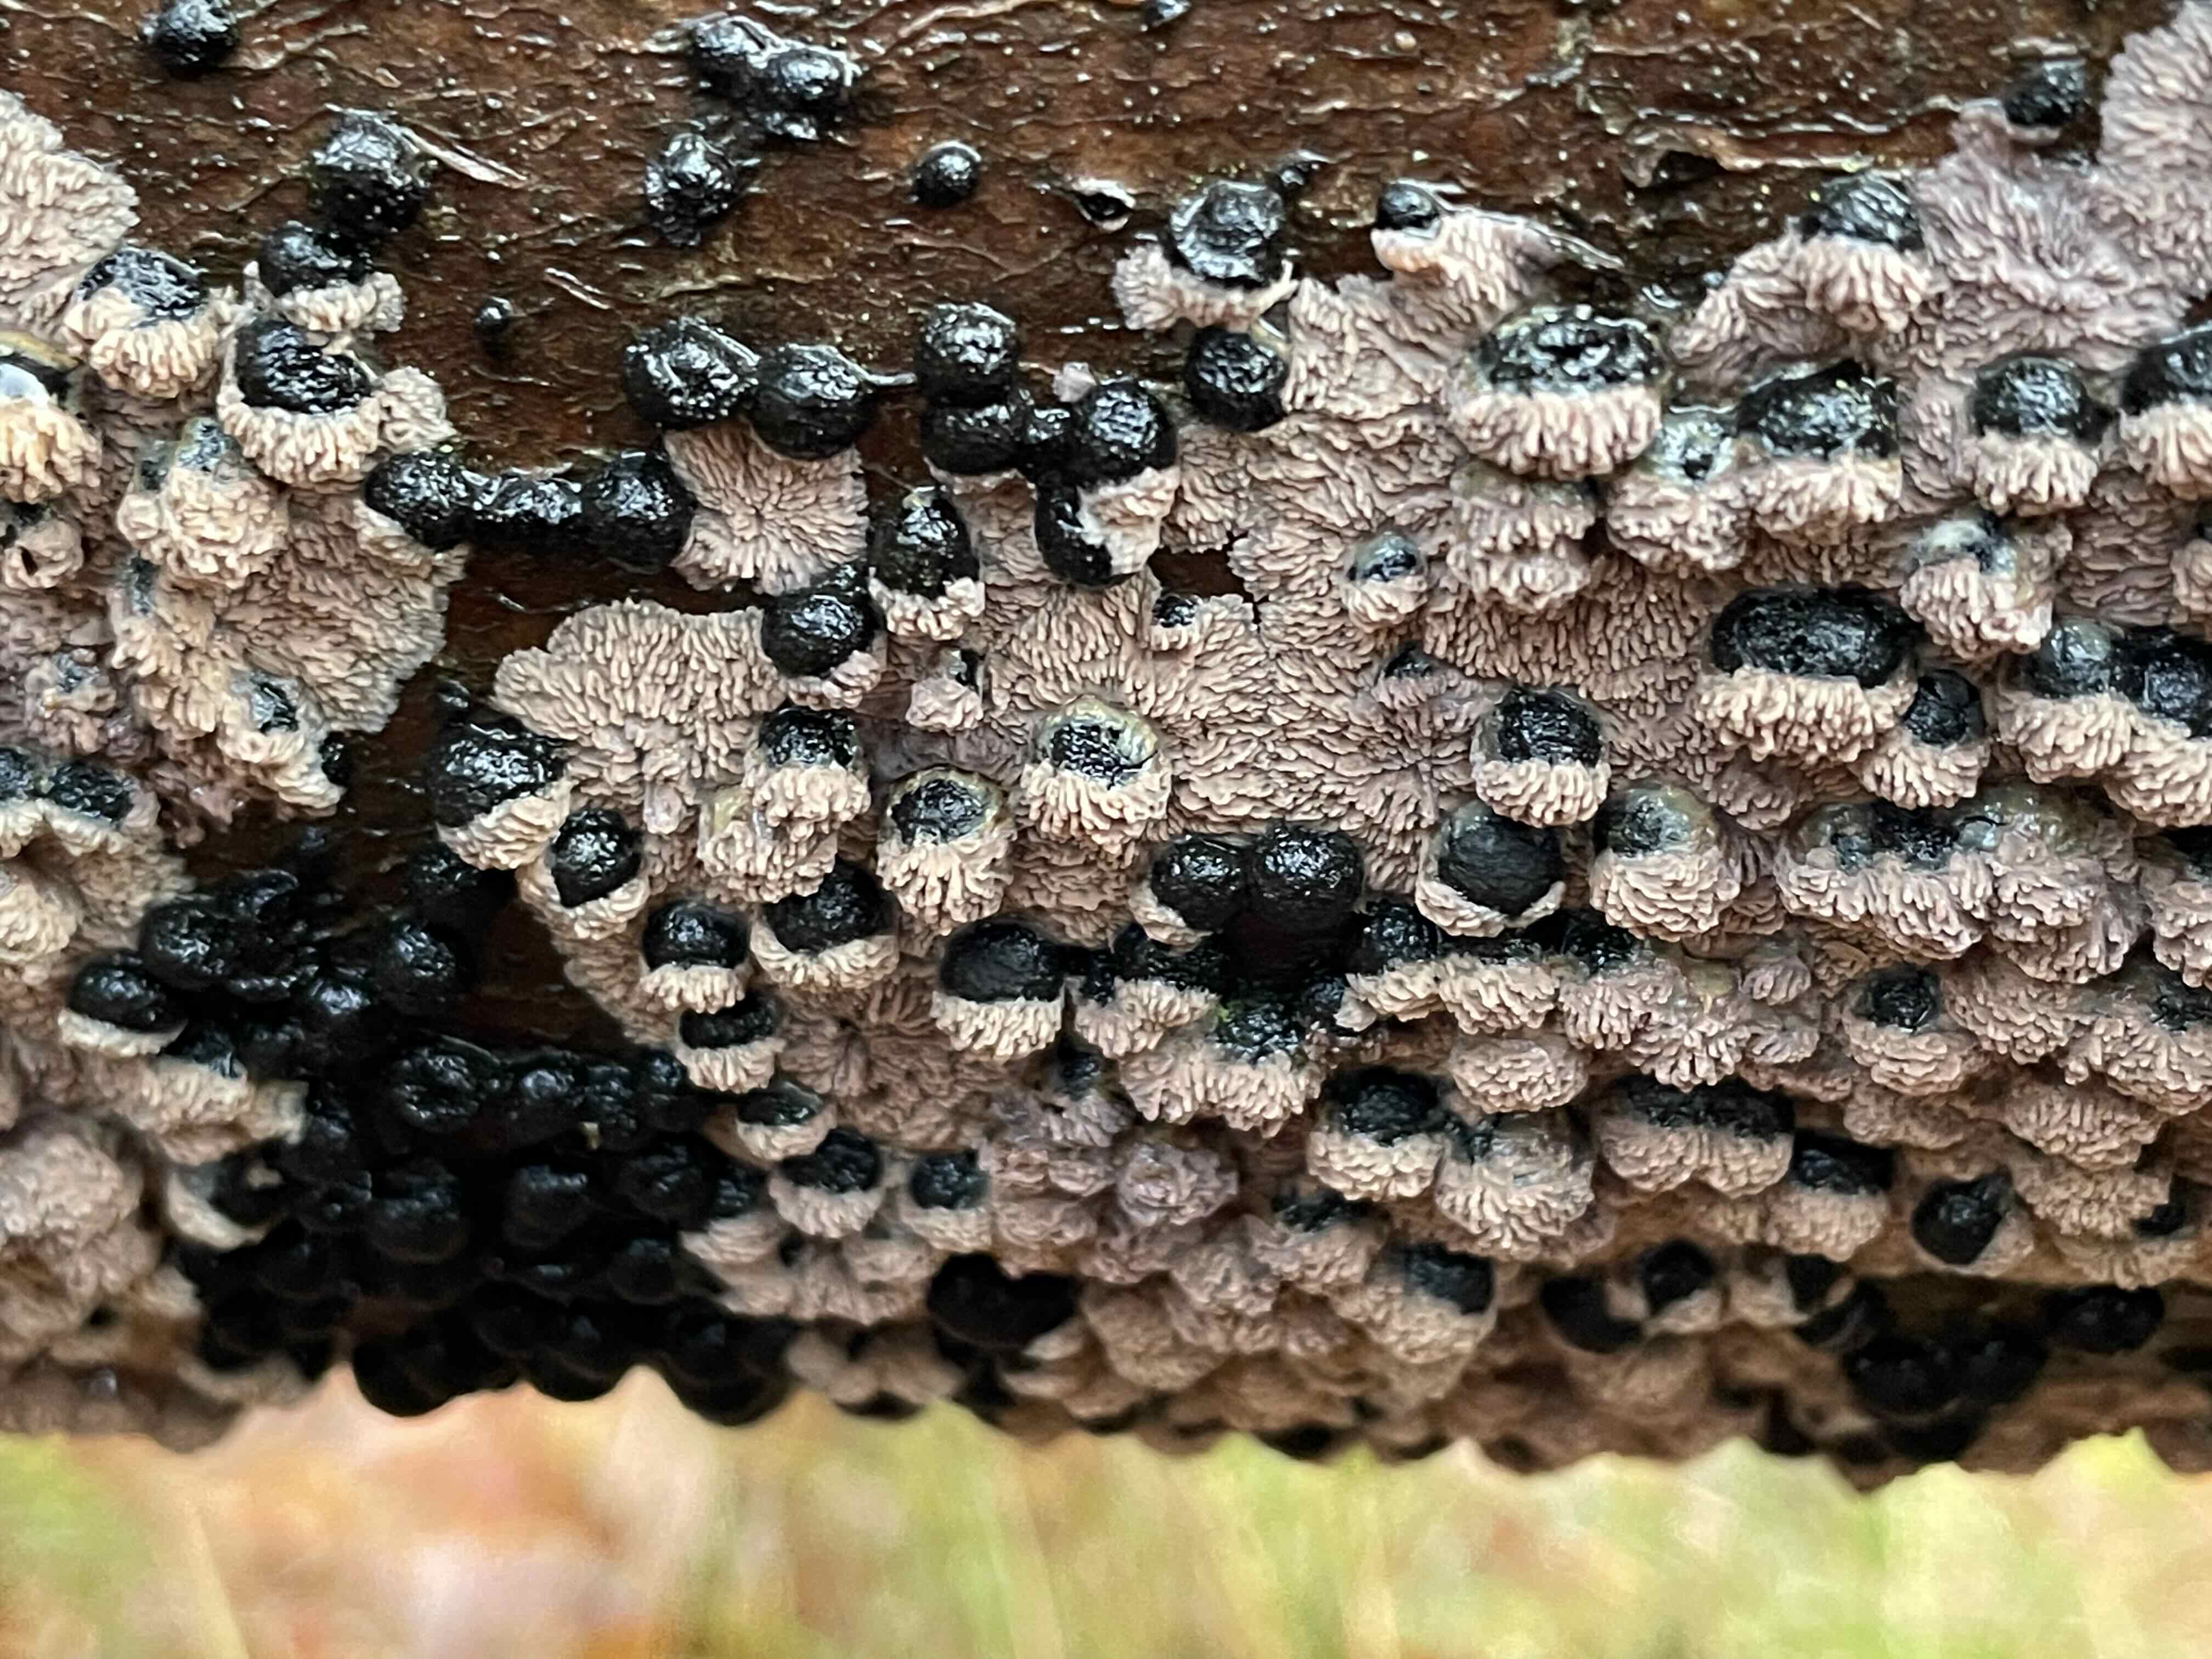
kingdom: Fungi
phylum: Basidiomycota
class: Agaricomycetes
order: Polyporales
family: Meruliaceae
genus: Phlebia
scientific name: Phlebia radiata
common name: stråle-åresvamp
